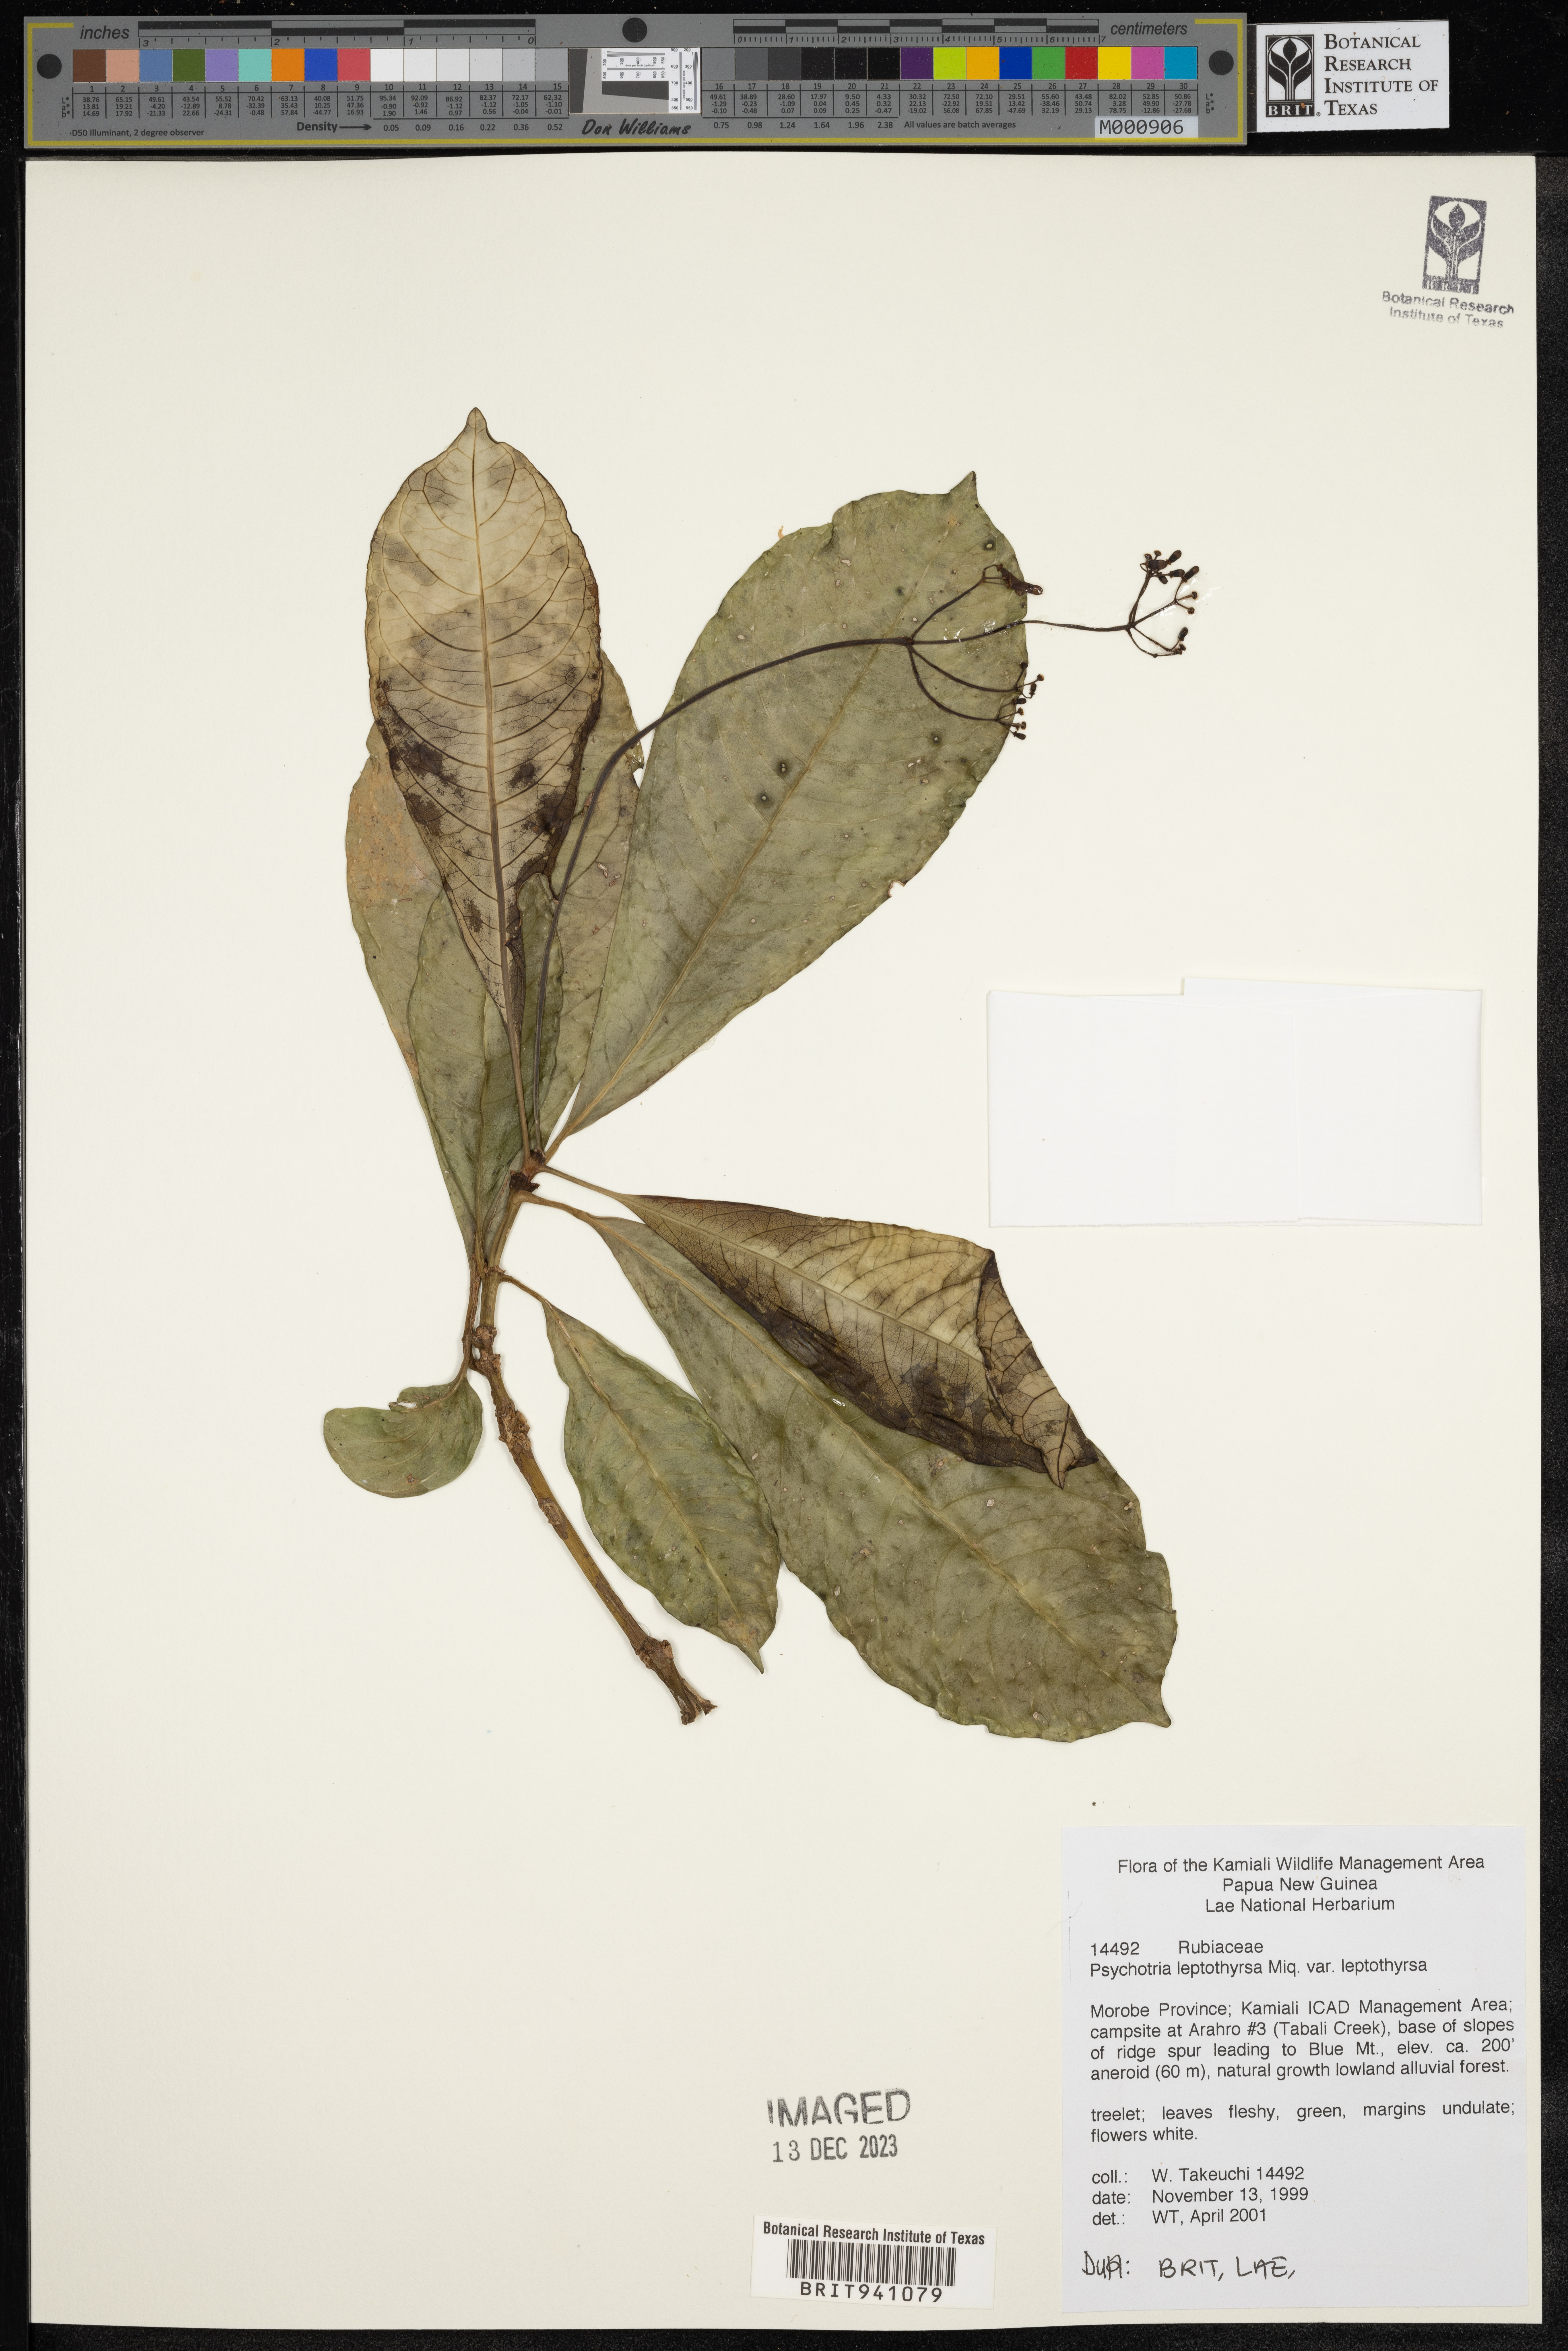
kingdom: Plantae
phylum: Tracheophyta
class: Magnoliopsida
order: Gentianales
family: Rubiaceae
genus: Psychotria
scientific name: Psychotria
